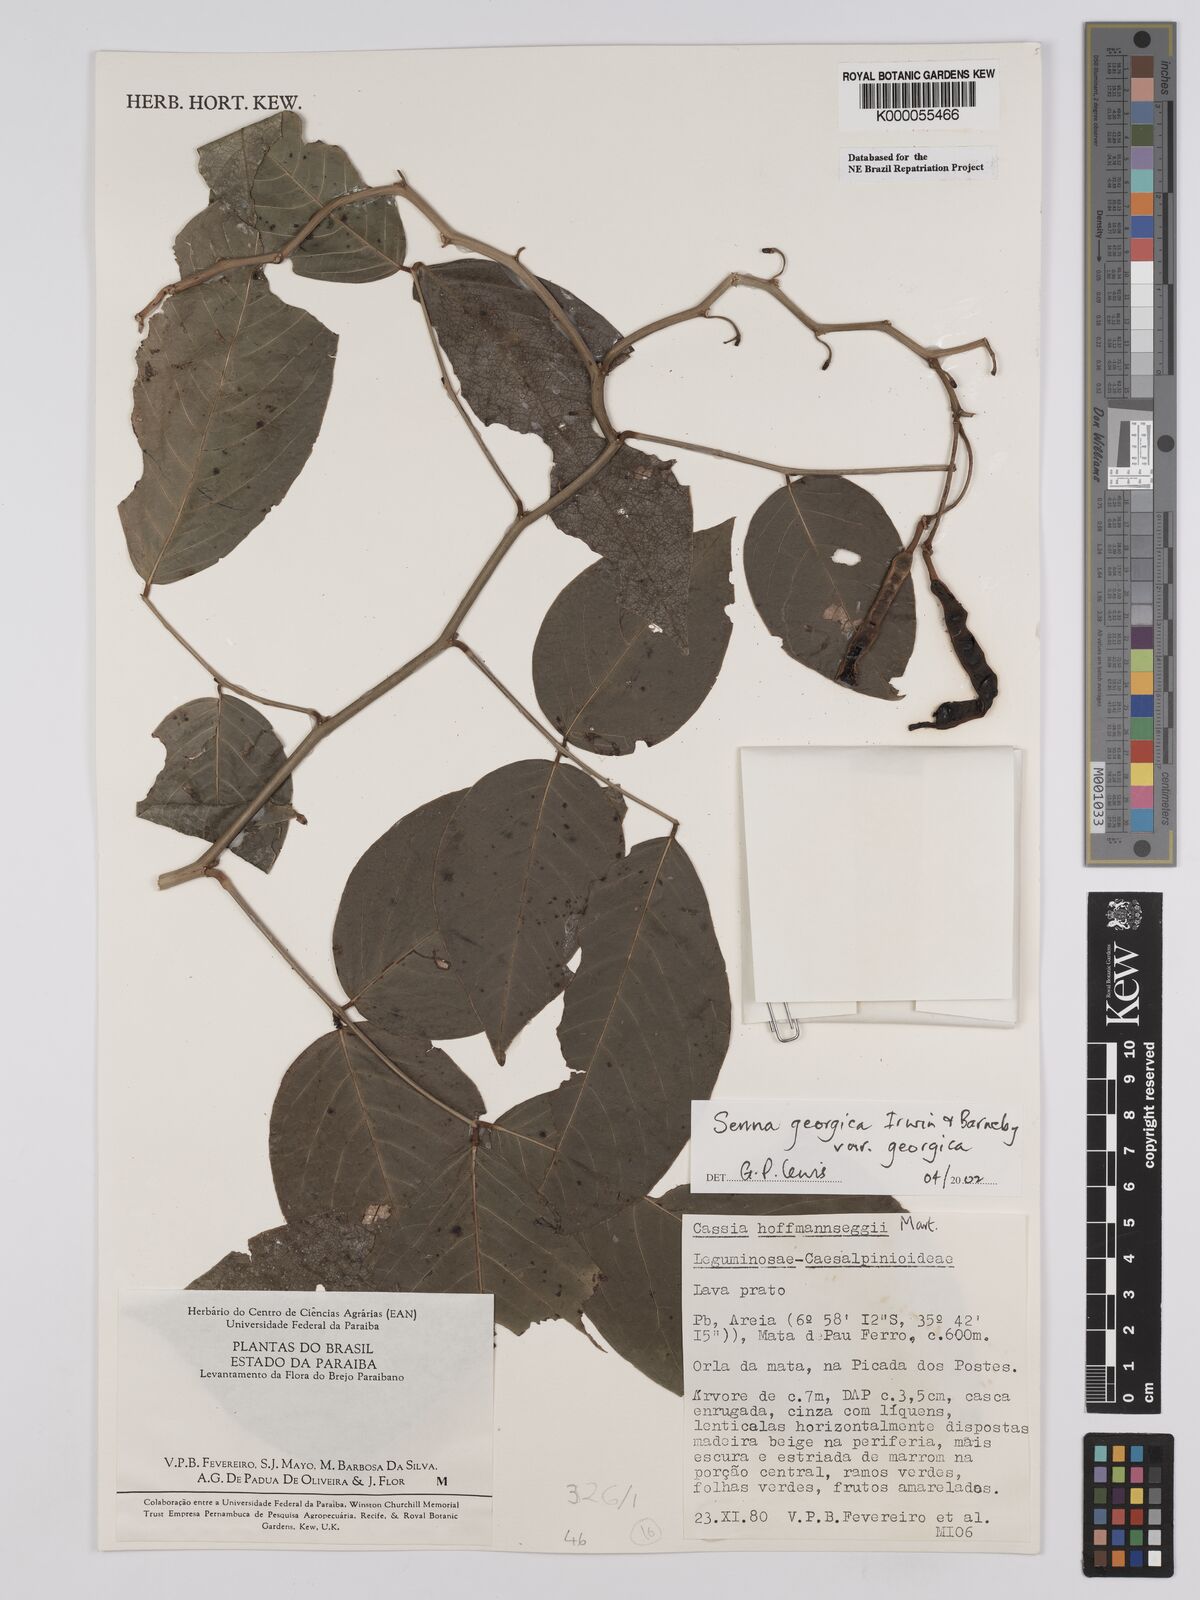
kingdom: Plantae
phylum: Tracheophyta
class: Magnoliopsida
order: Fabales
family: Fabaceae
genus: Senna
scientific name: Senna georgica
